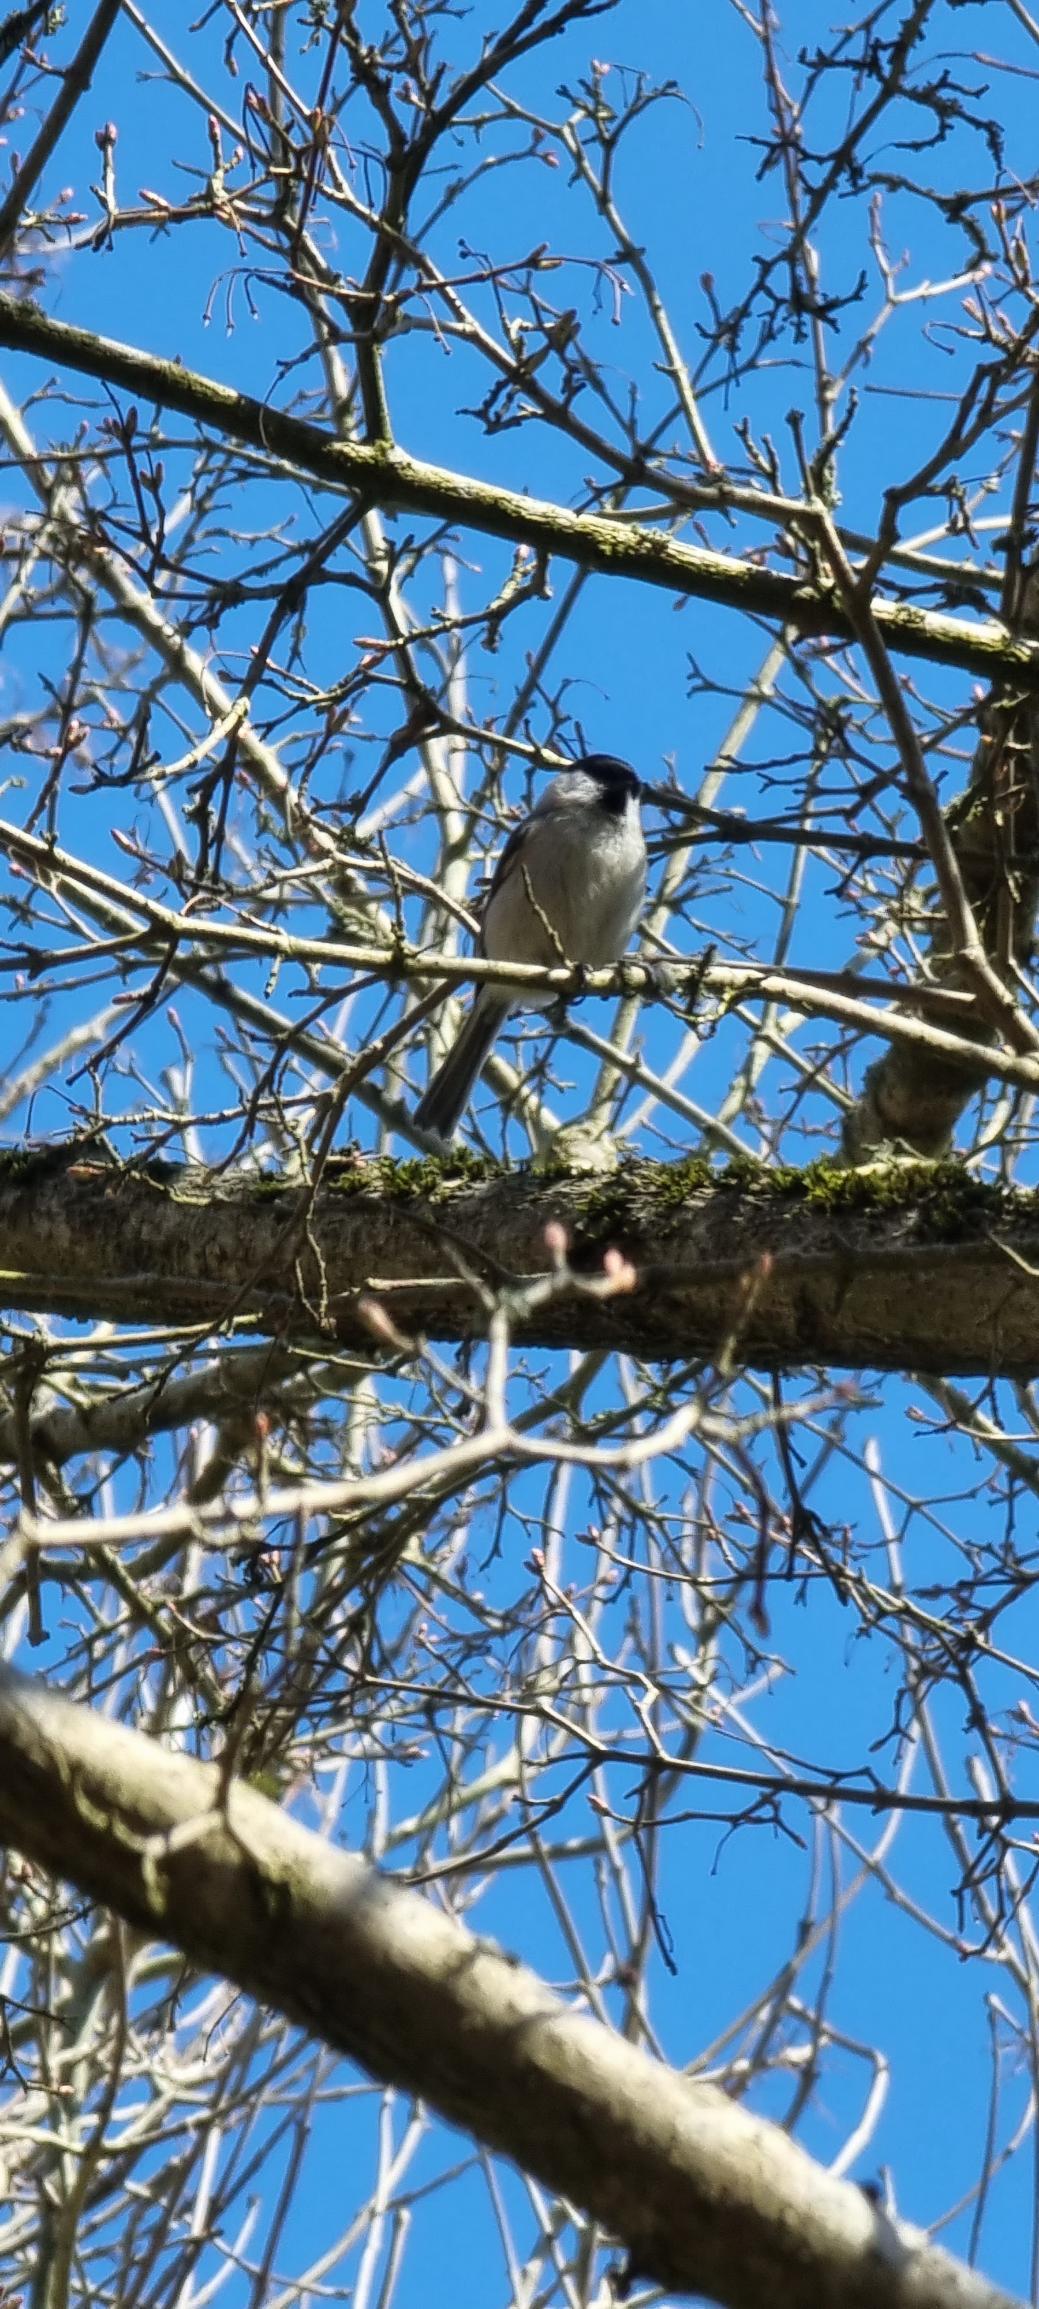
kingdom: Animalia
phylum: Chordata
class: Aves
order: Passeriformes
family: Paridae
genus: Poecile
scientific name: Poecile palustris
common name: Sumpmejse
